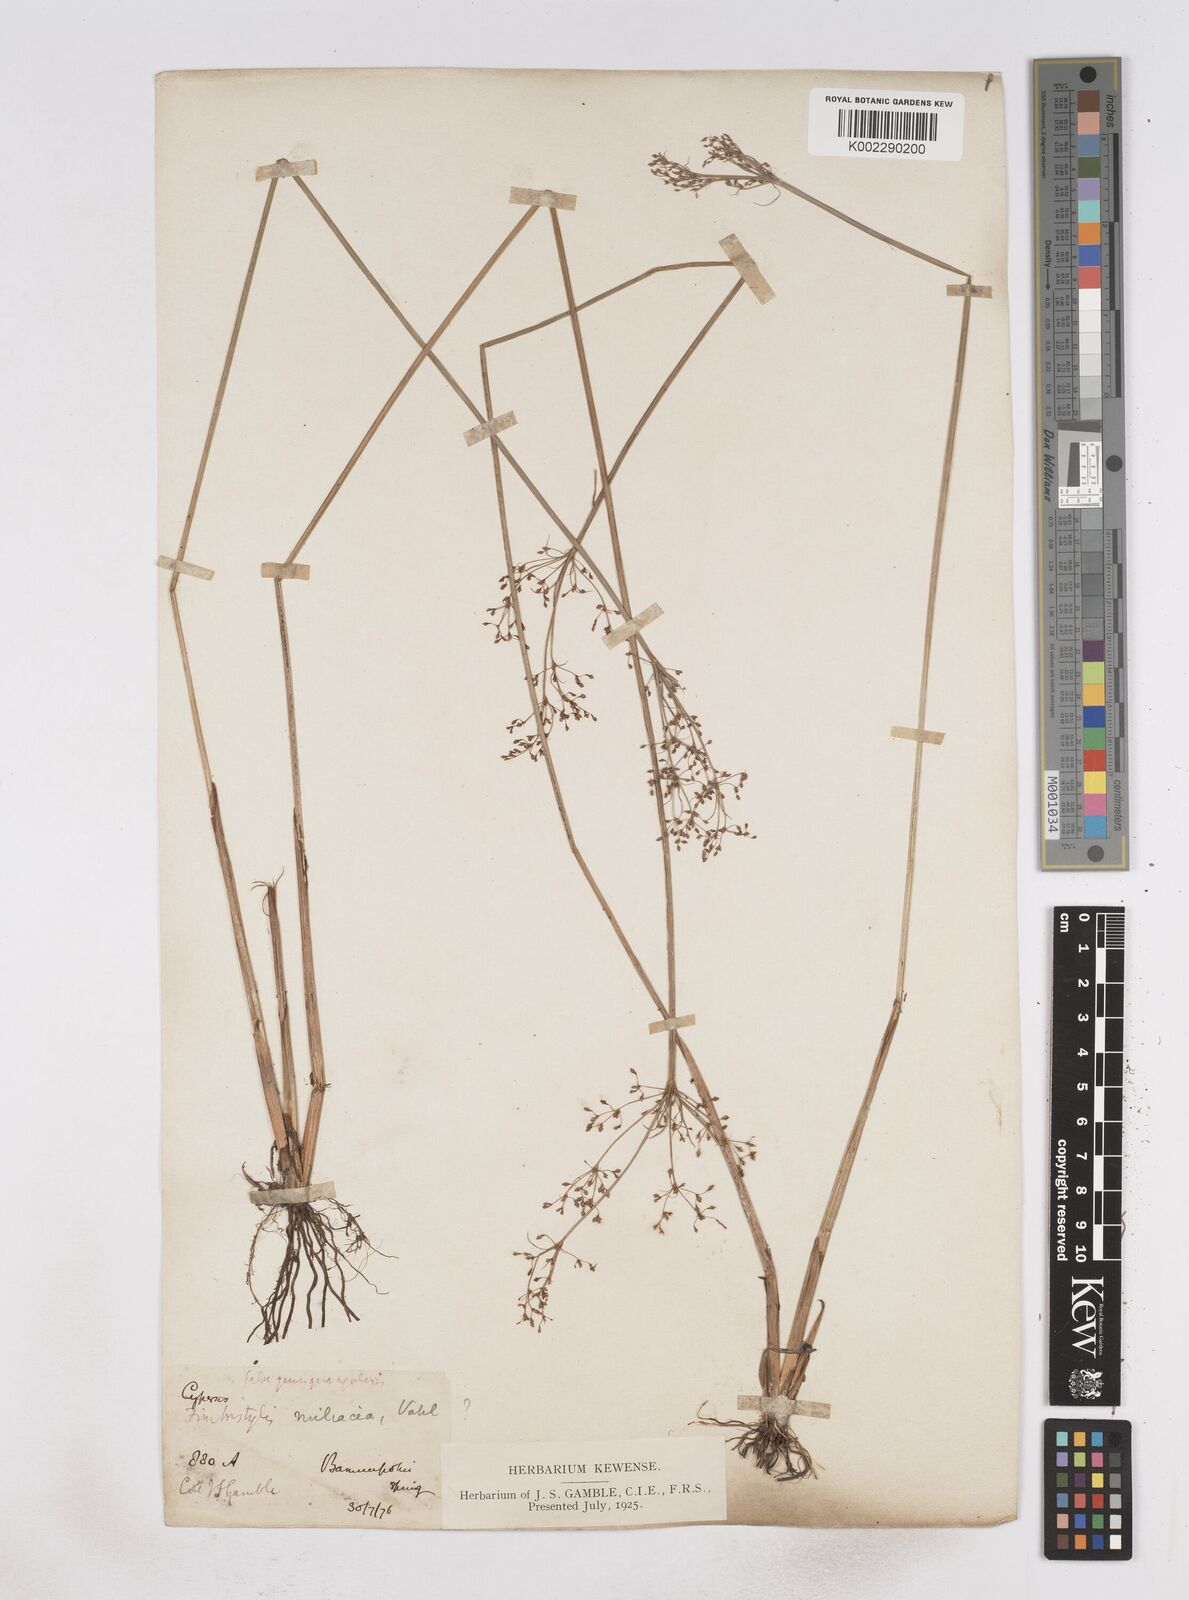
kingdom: Plantae
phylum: Tracheophyta
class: Liliopsida
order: Poales
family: Cyperaceae
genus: Fimbristylis
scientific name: Fimbristylis
